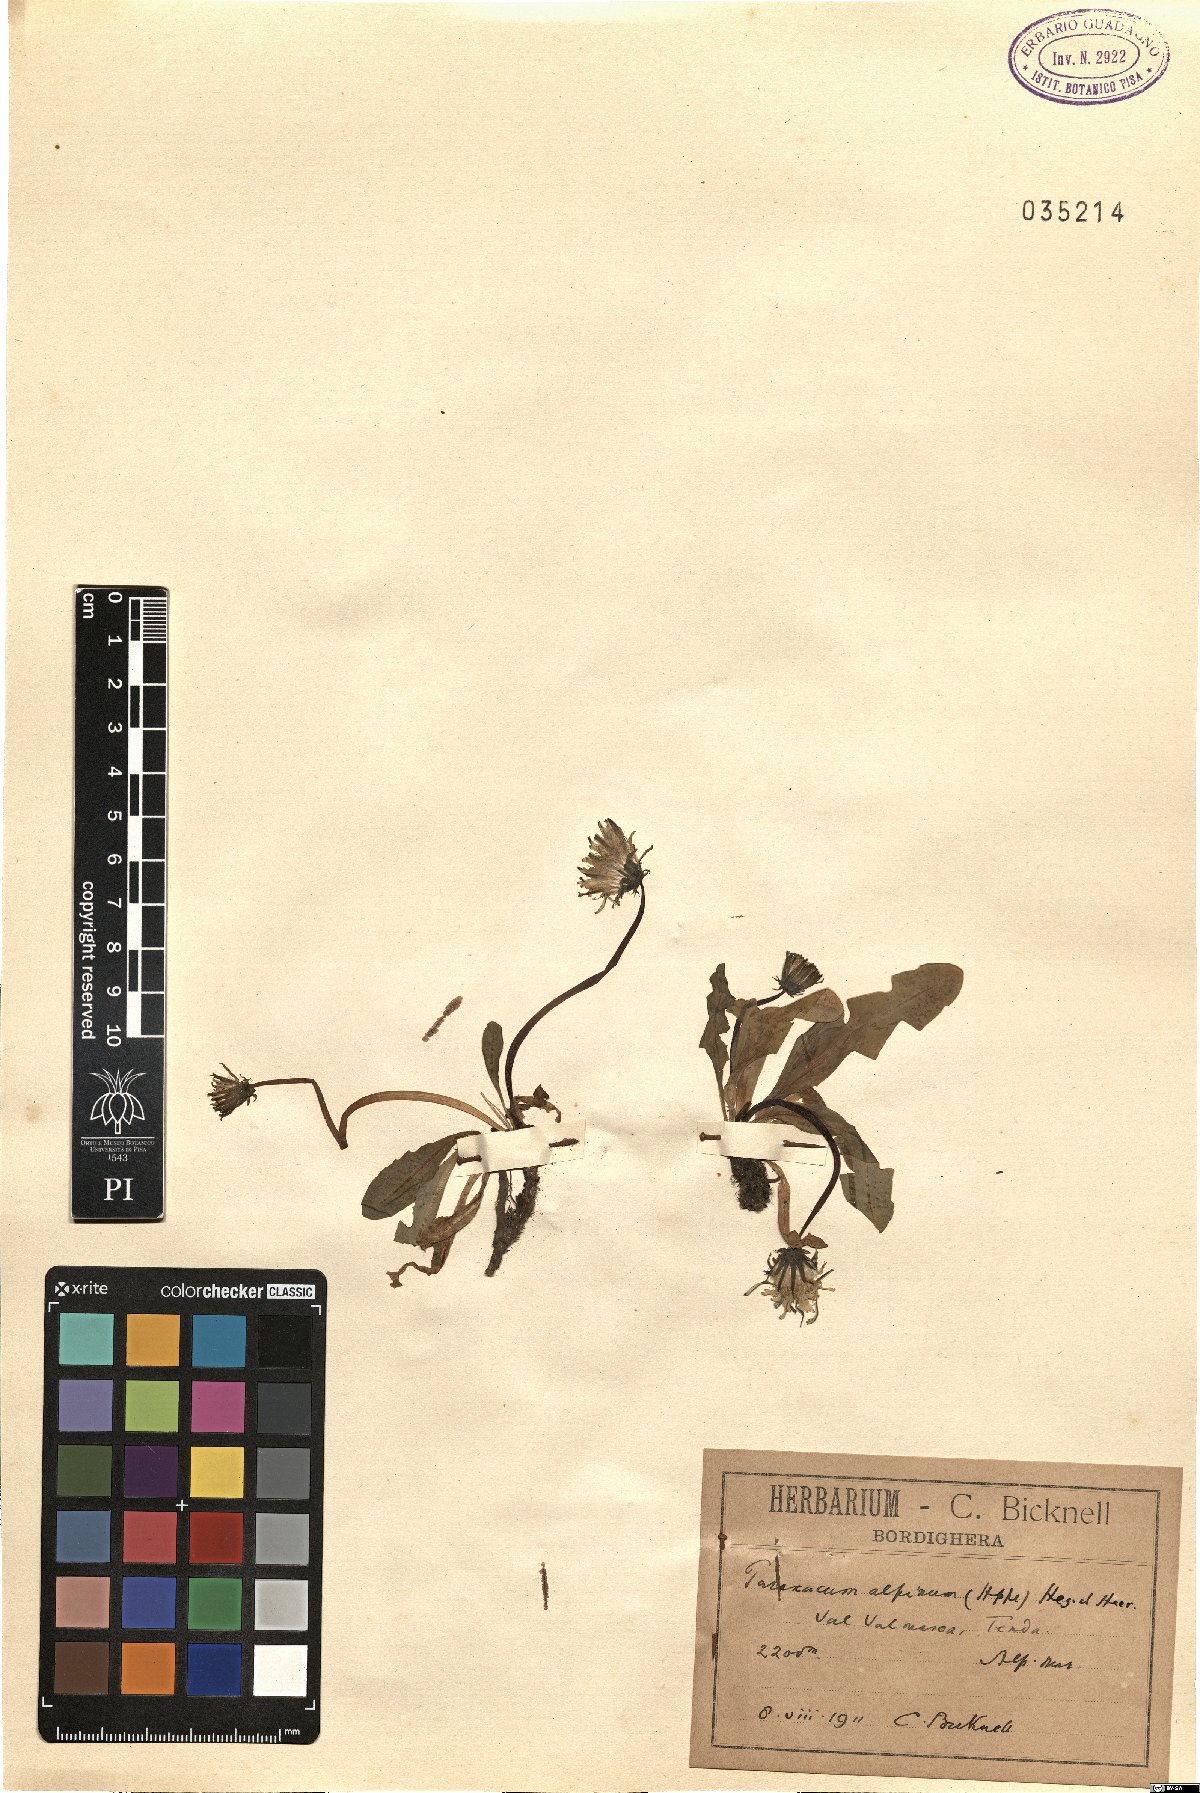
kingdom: Plantae
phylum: Tracheophyta
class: Magnoliopsida
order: Asterales
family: Asteraceae
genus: Taraxacum
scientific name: Taraxacum alpinum
